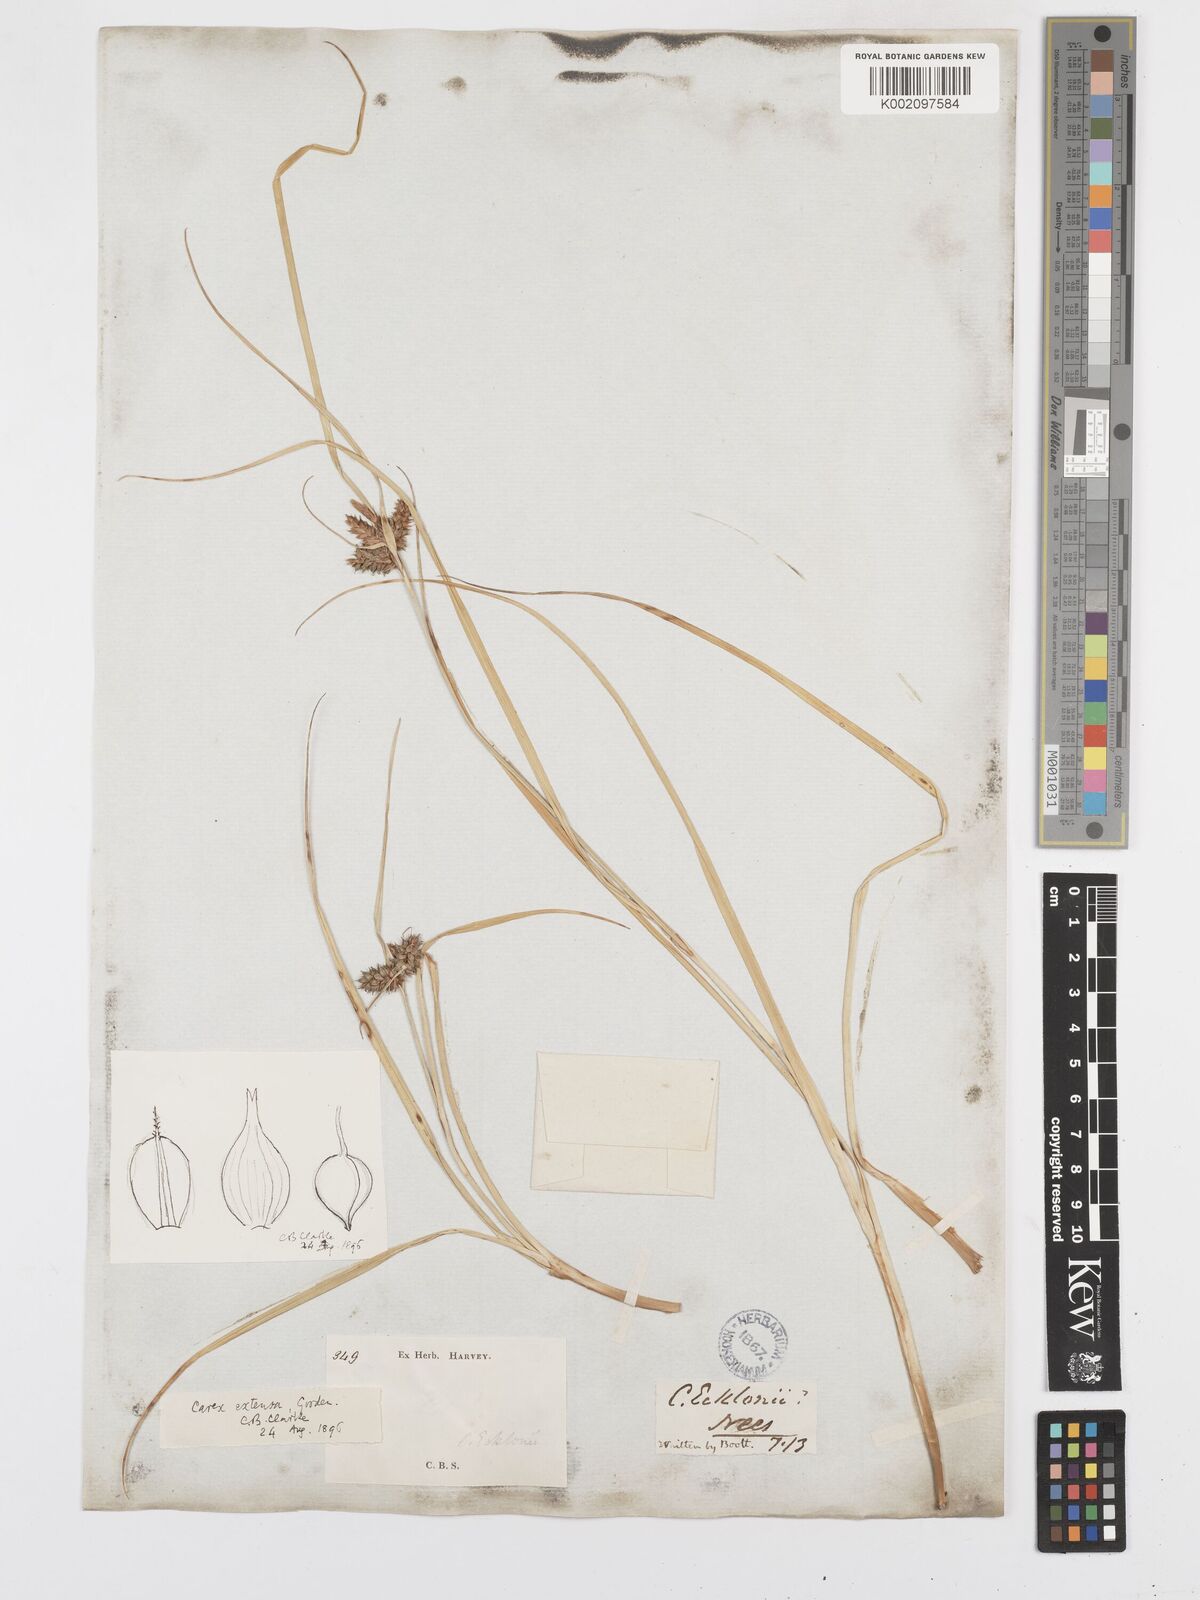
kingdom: Plantae
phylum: Tracheophyta
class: Liliopsida
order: Poales
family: Cyperaceae
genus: Carex
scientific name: Carex extensa
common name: Long-bracted sedge
